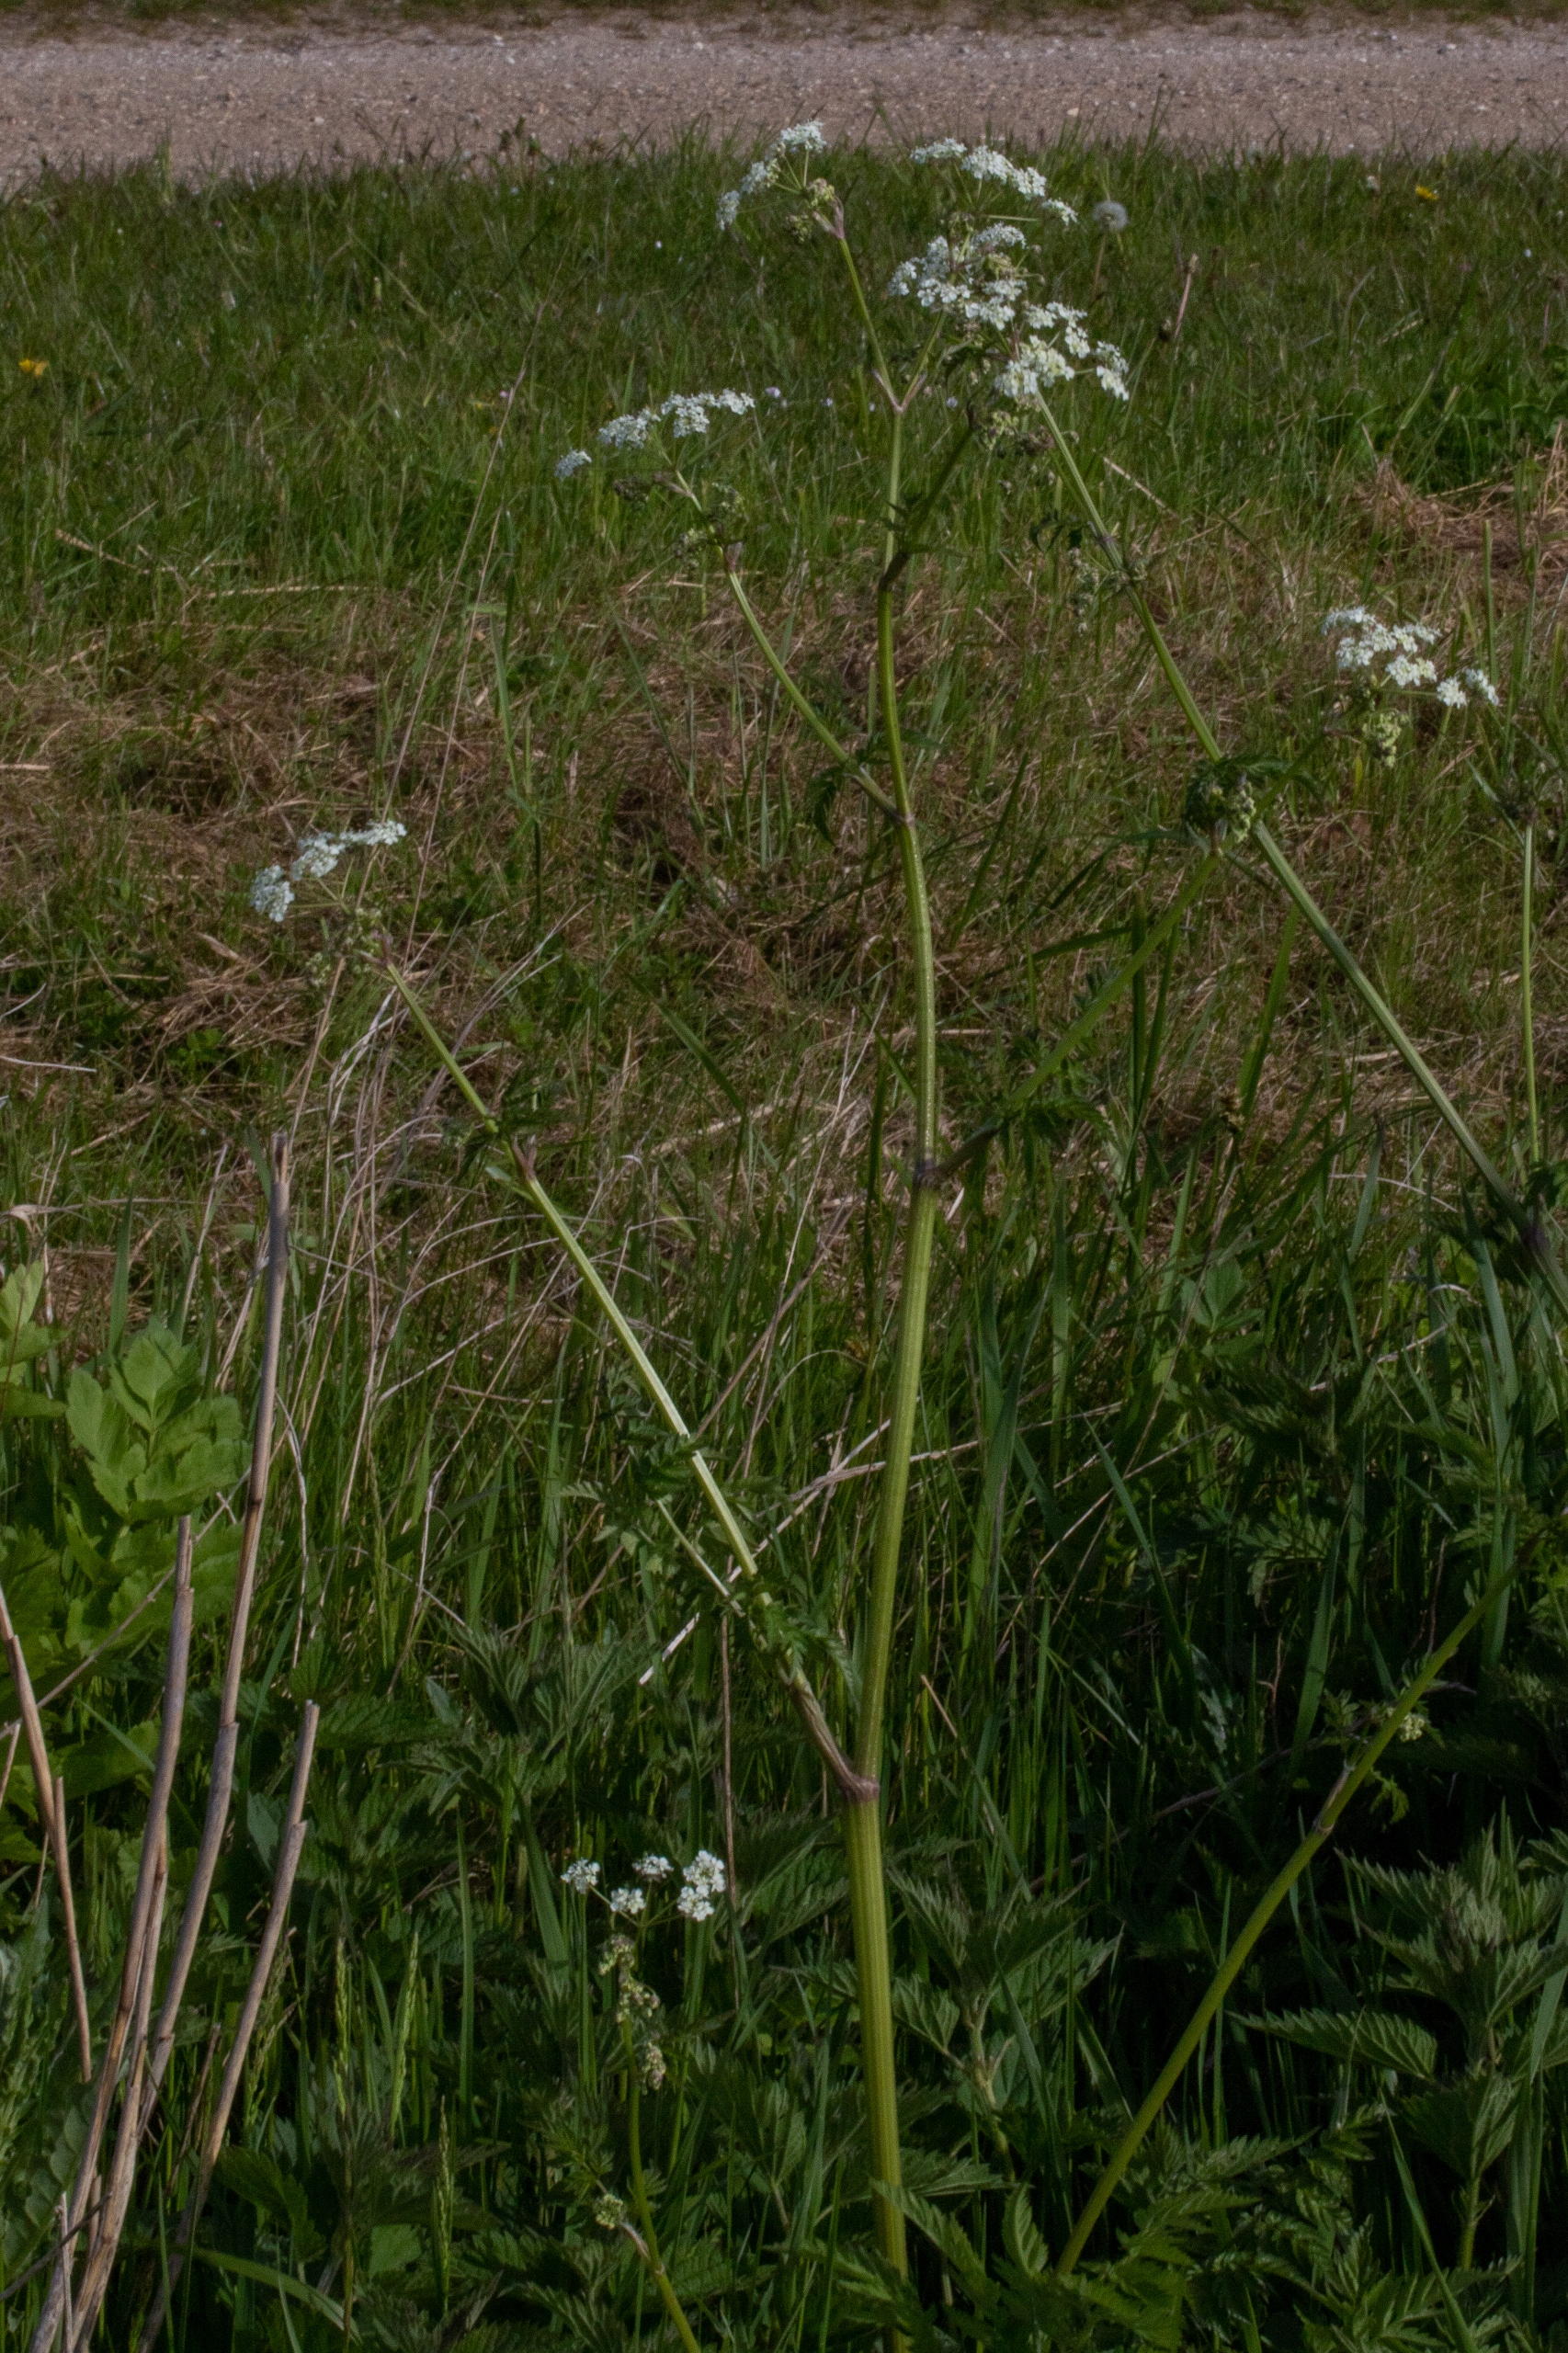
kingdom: Plantae
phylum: Tracheophyta
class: Magnoliopsida
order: Apiales
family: Apiaceae
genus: Anthriscus
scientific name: Anthriscus sylvestris
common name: Vild kørvel
